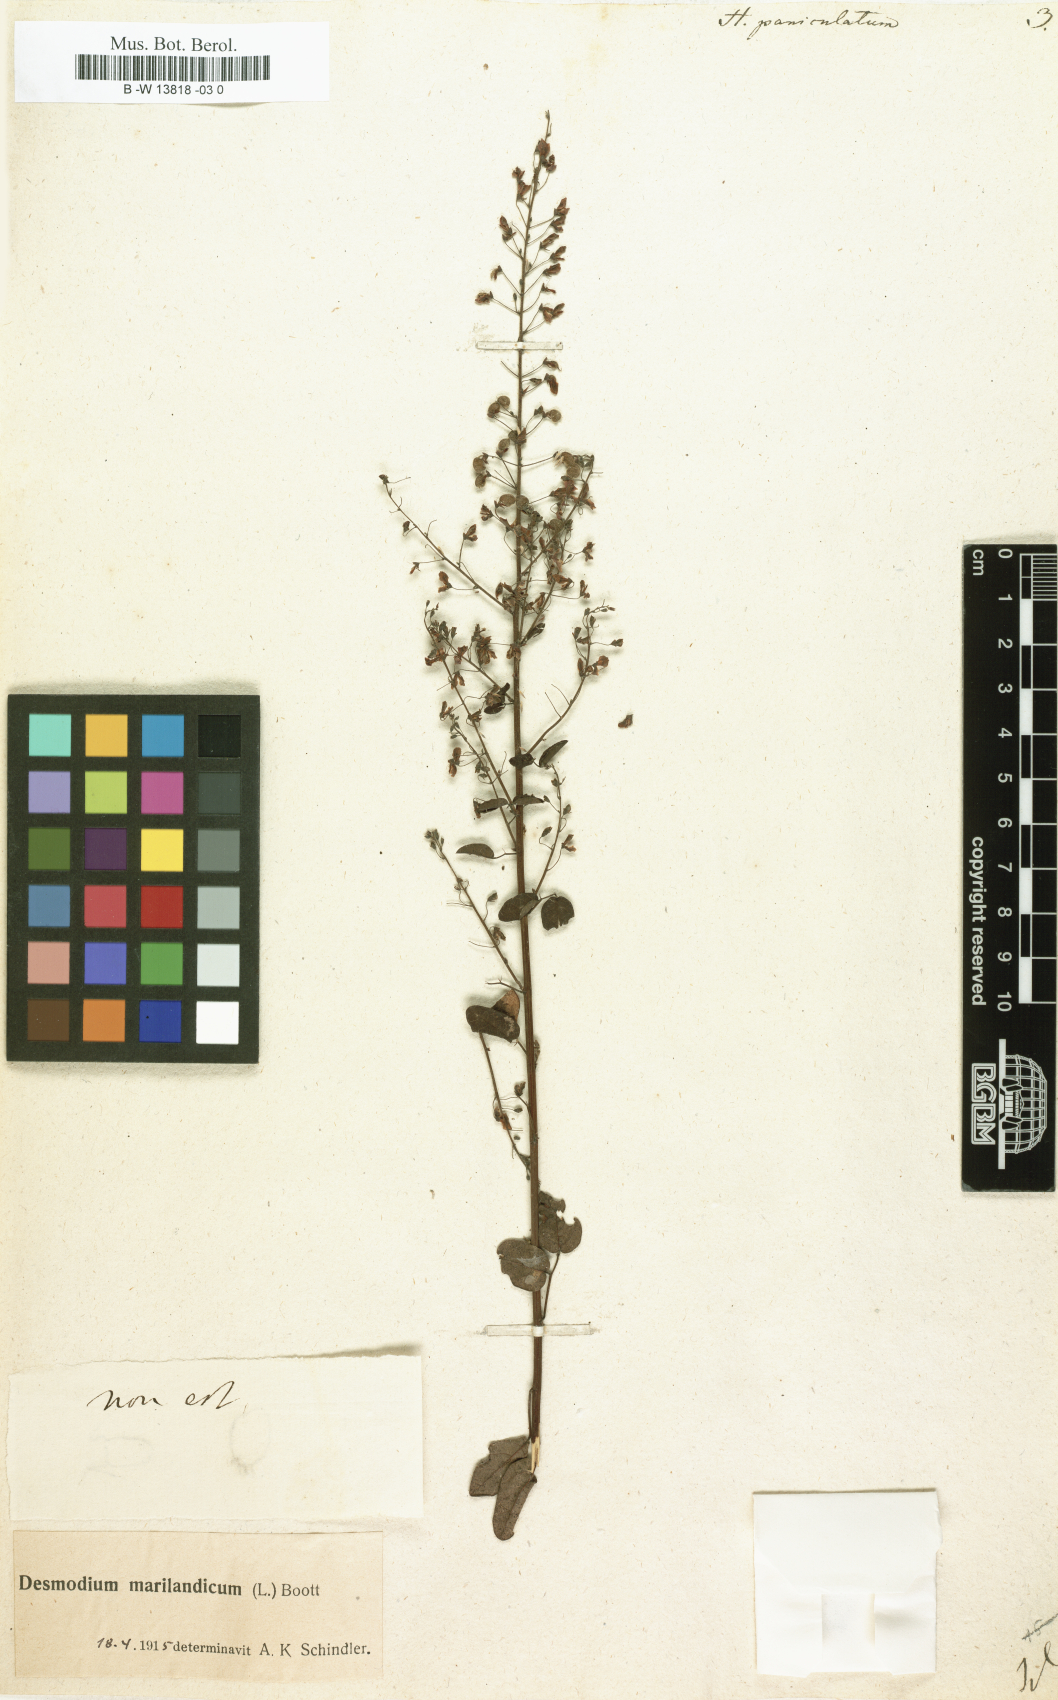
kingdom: Plantae
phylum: Tracheophyta
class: Magnoliopsida
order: Fabales
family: Fabaceae
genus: Desmodium
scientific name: Desmodium paniculatum
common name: Panicled tick-clover
